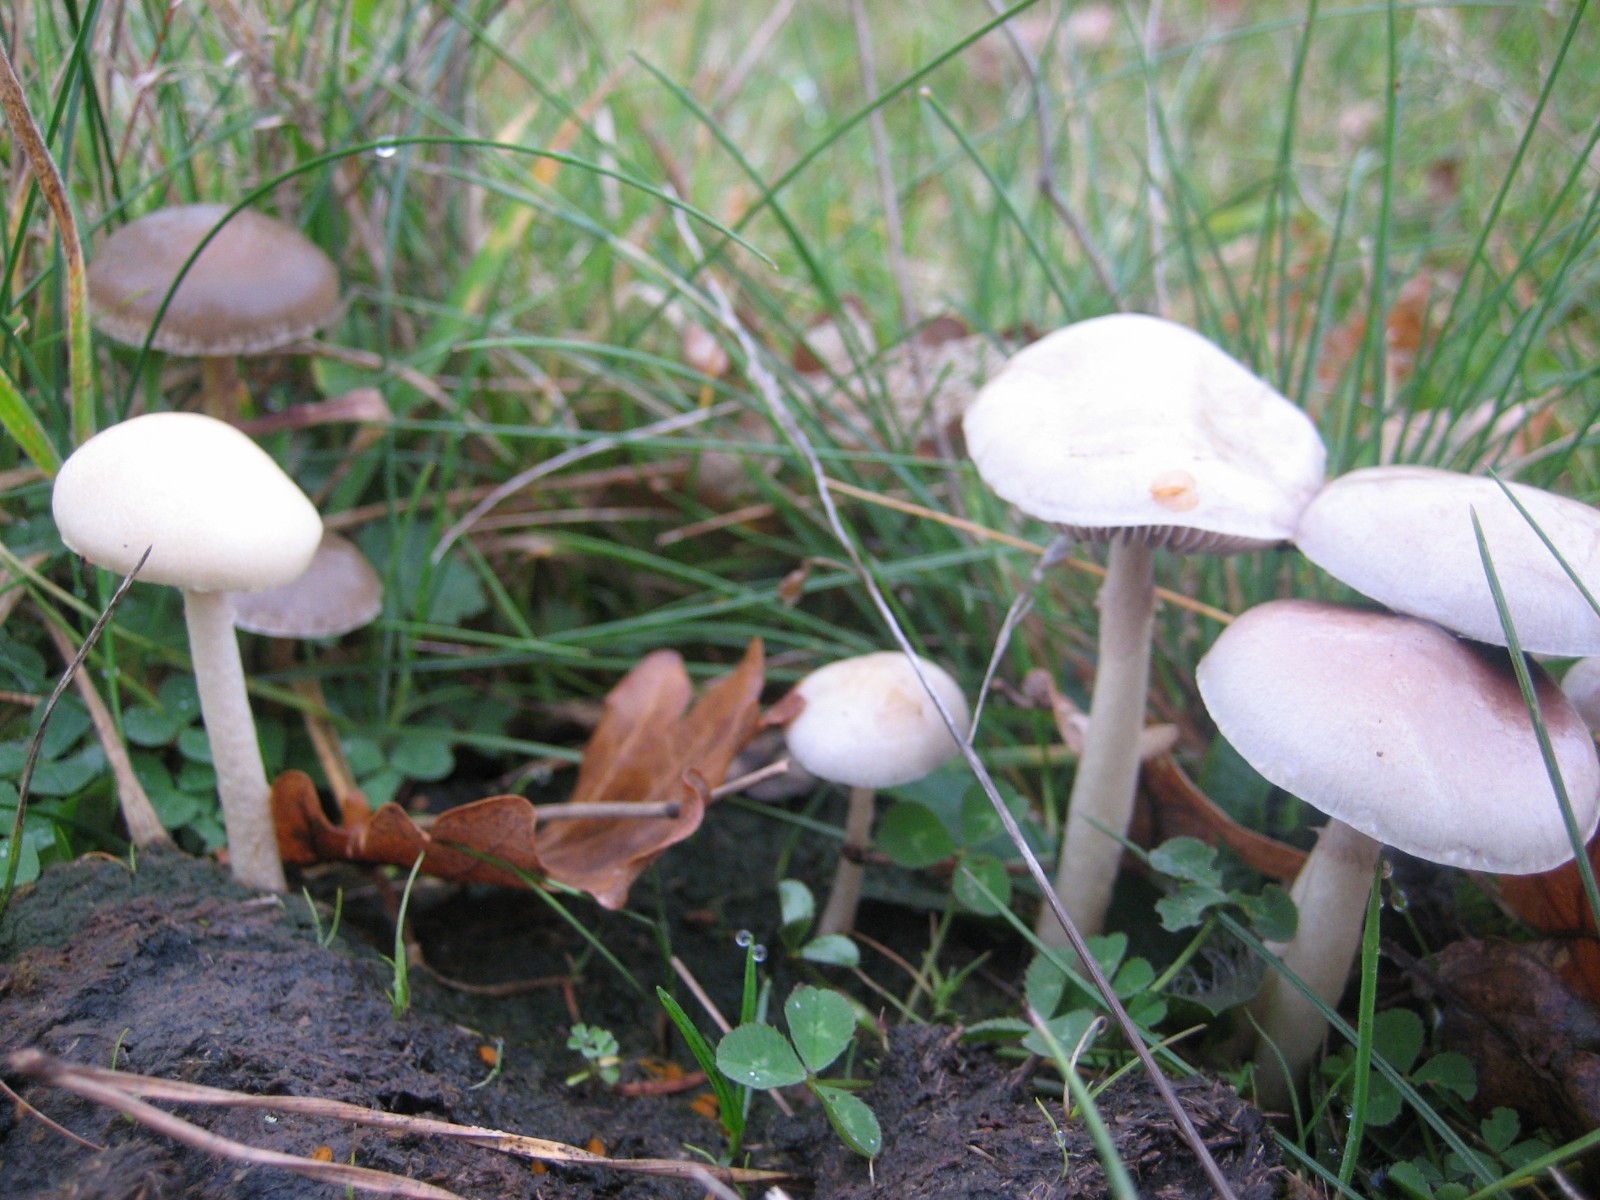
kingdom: Fungi
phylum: Basidiomycota
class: Agaricomycetes
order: Agaricales
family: Strophariaceae
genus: Protostropharia
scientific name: Protostropharia semiglobata
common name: halvkugleformet bredblad
